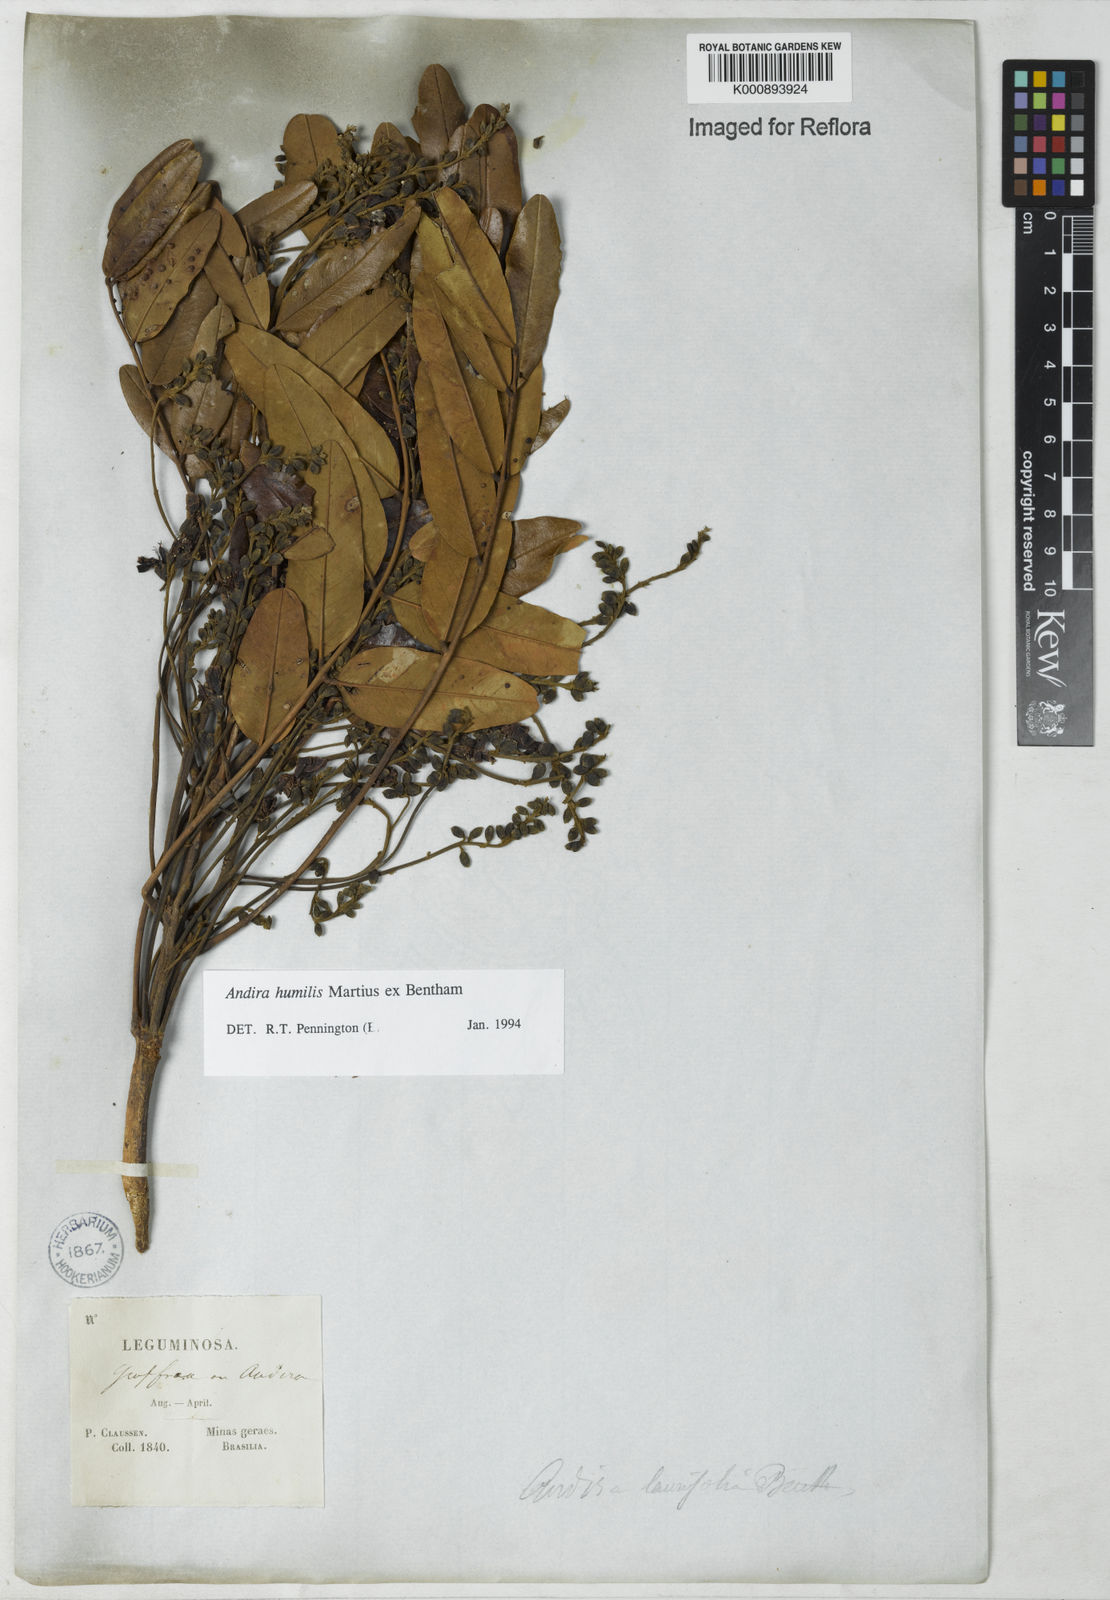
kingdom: Plantae
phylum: Tracheophyta
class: Magnoliopsida
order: Fabales
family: Fabaceae
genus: Andira
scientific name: Andira humilis
